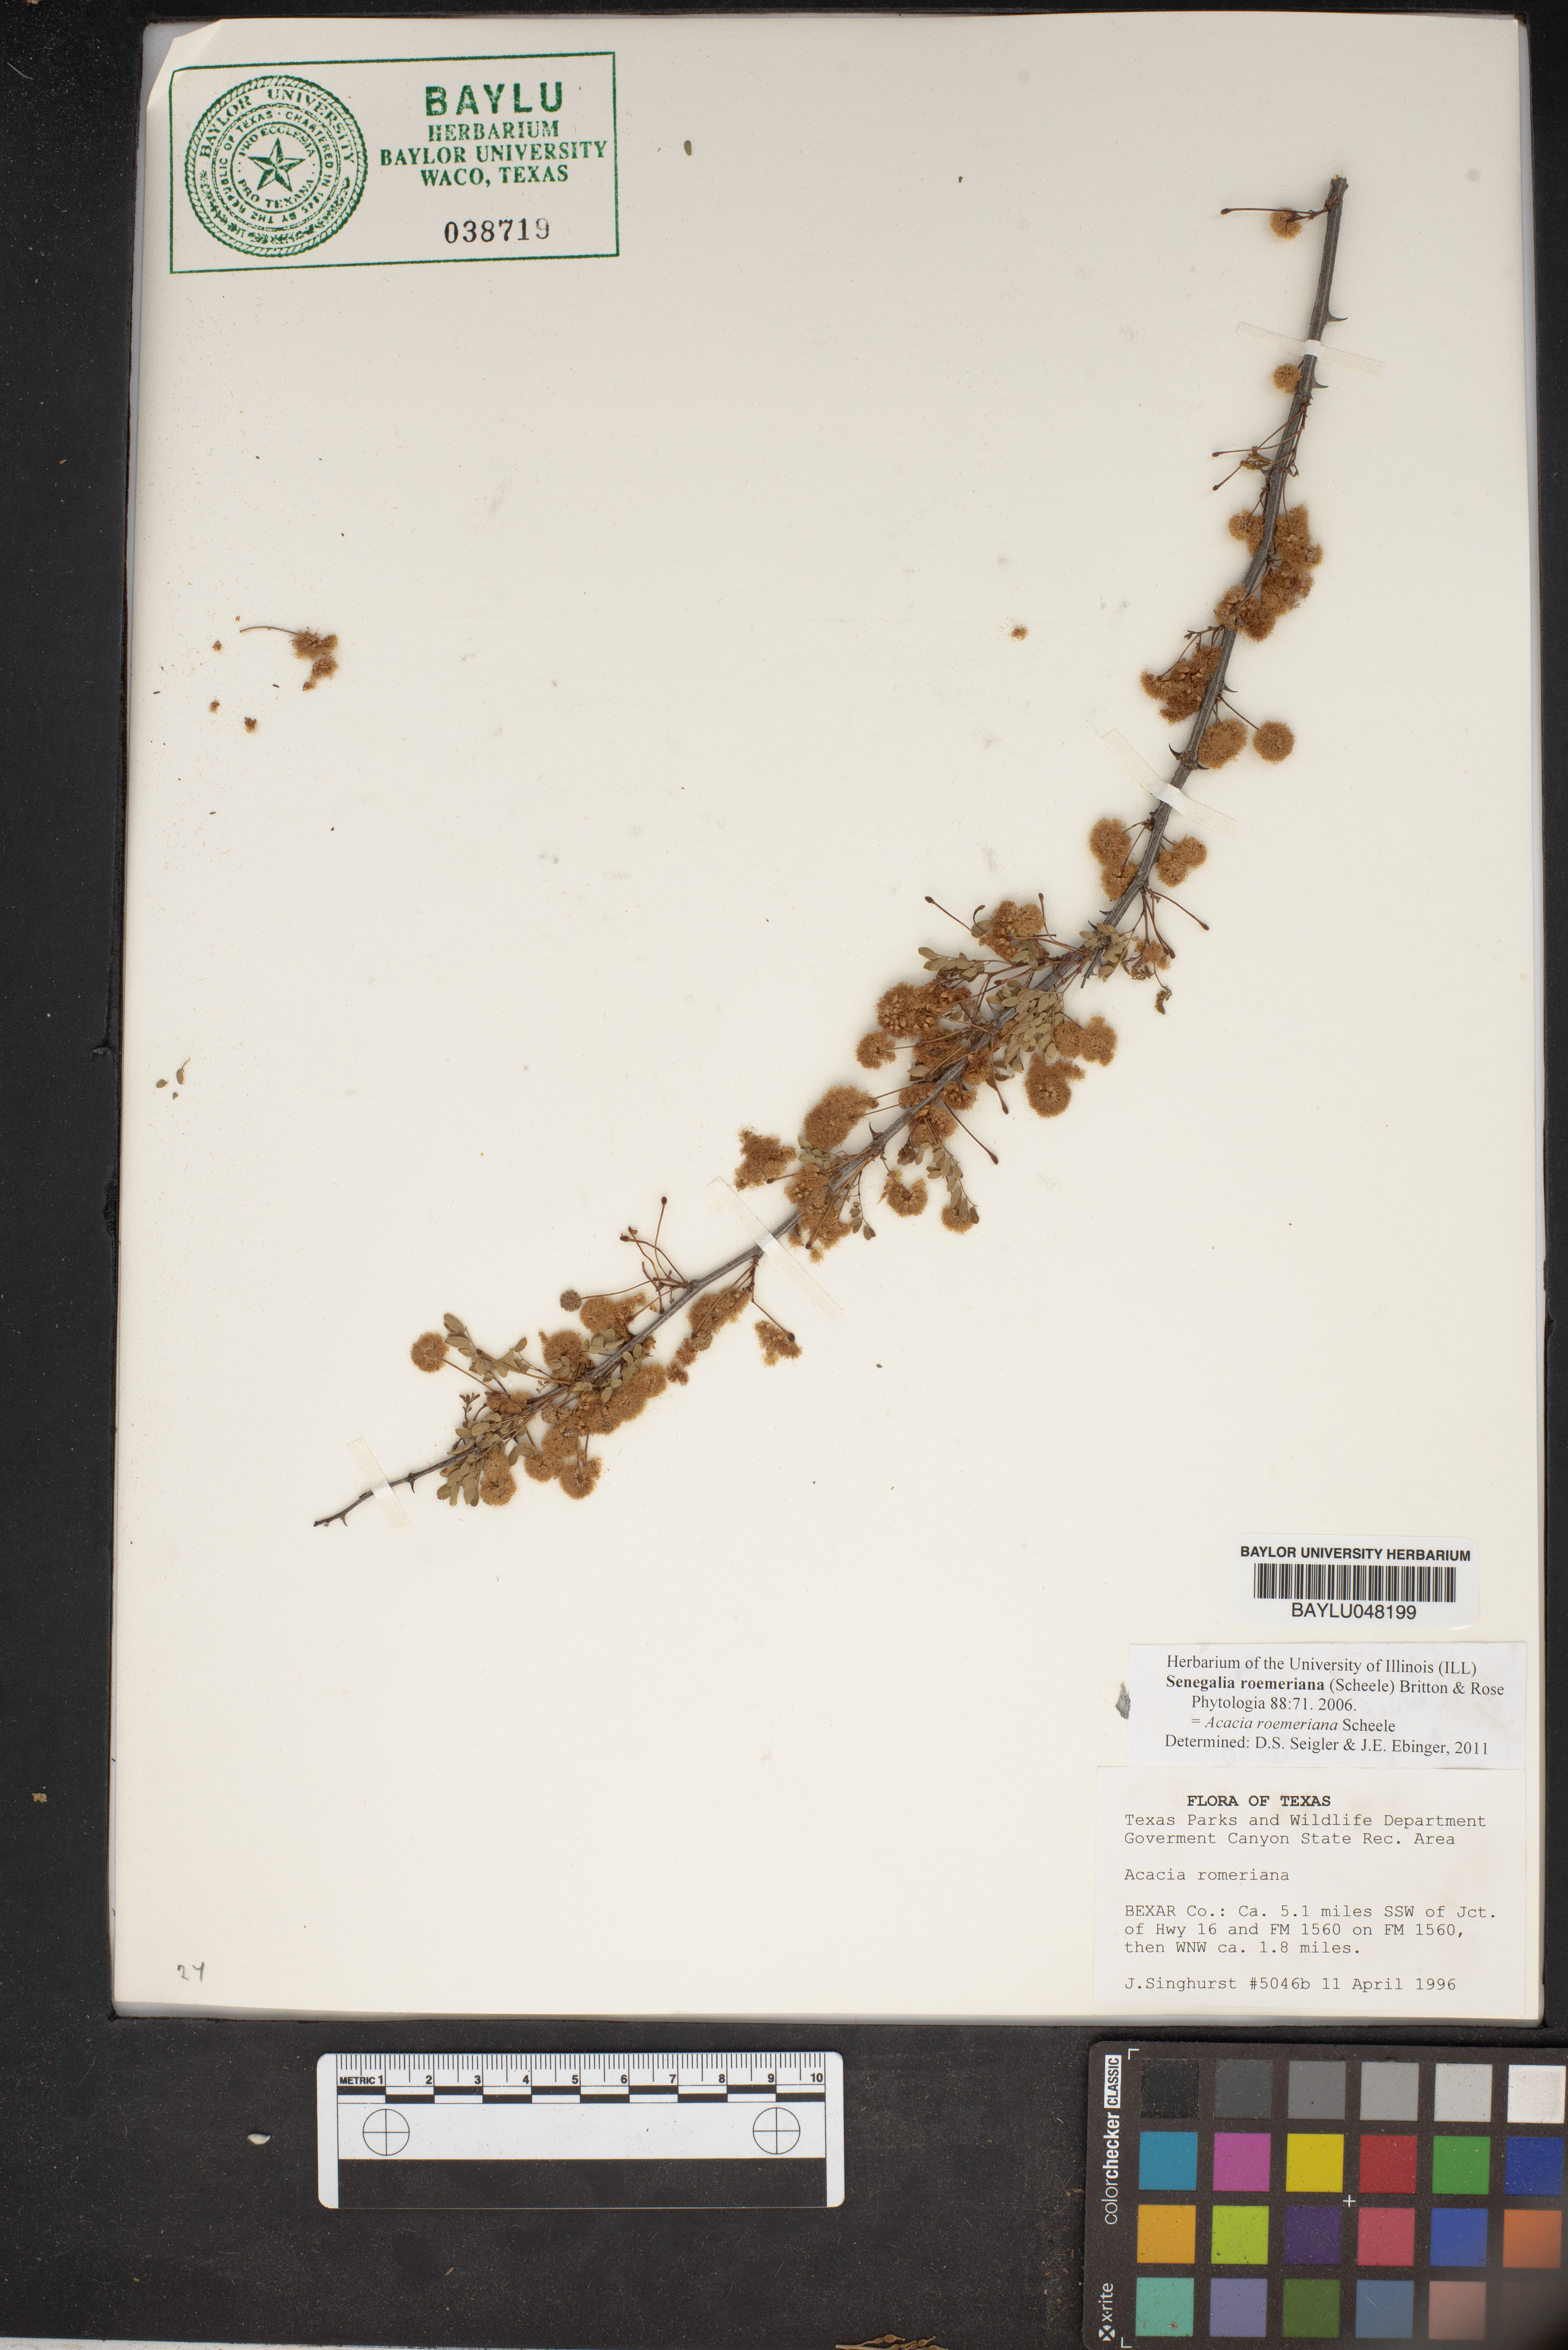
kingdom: Plantae
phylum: Tracheophyta
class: Magnoliopsida
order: Fabales
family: Fabaceae
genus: Senegalia
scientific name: Senegalia roemeriana
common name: Roemer's acacia
